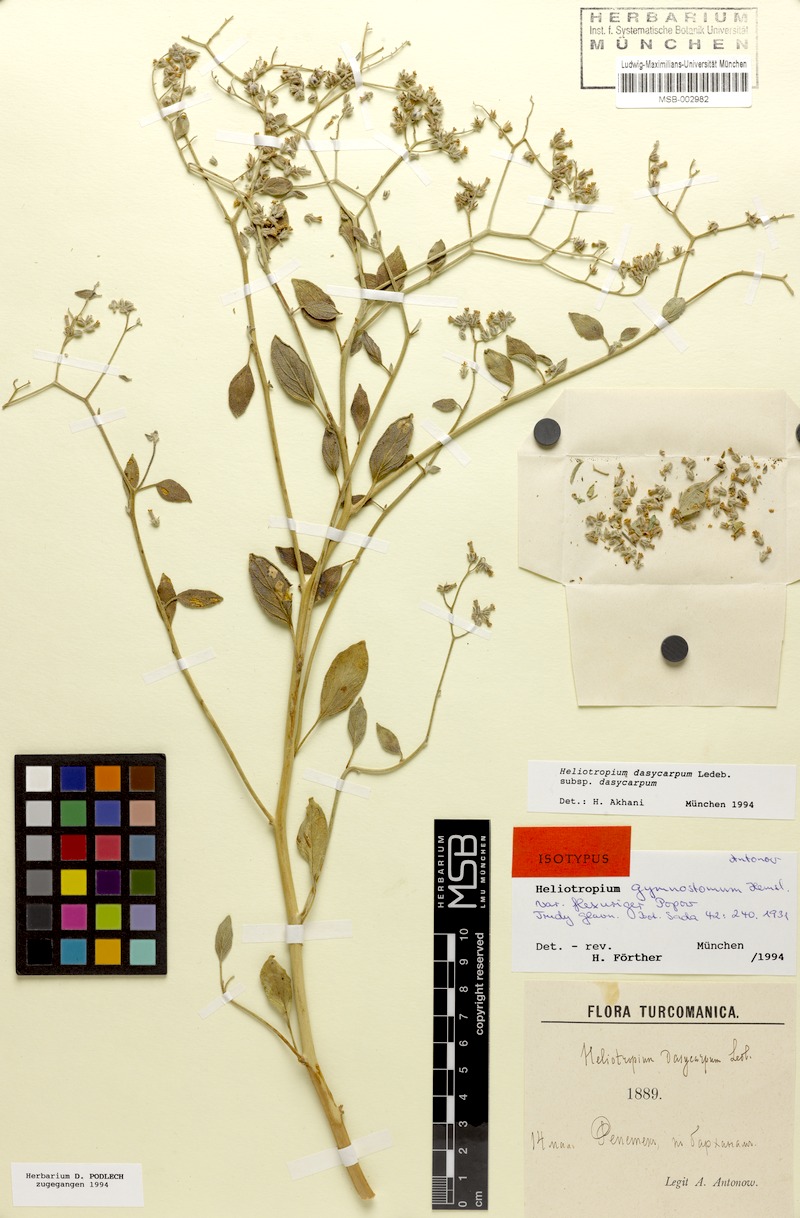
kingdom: Plantae
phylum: Tracheophyta
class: Magnoliopsida
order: Boraginales
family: Heliotropiaceae
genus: Heliotropium
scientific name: Heliotropium dasycarpum
